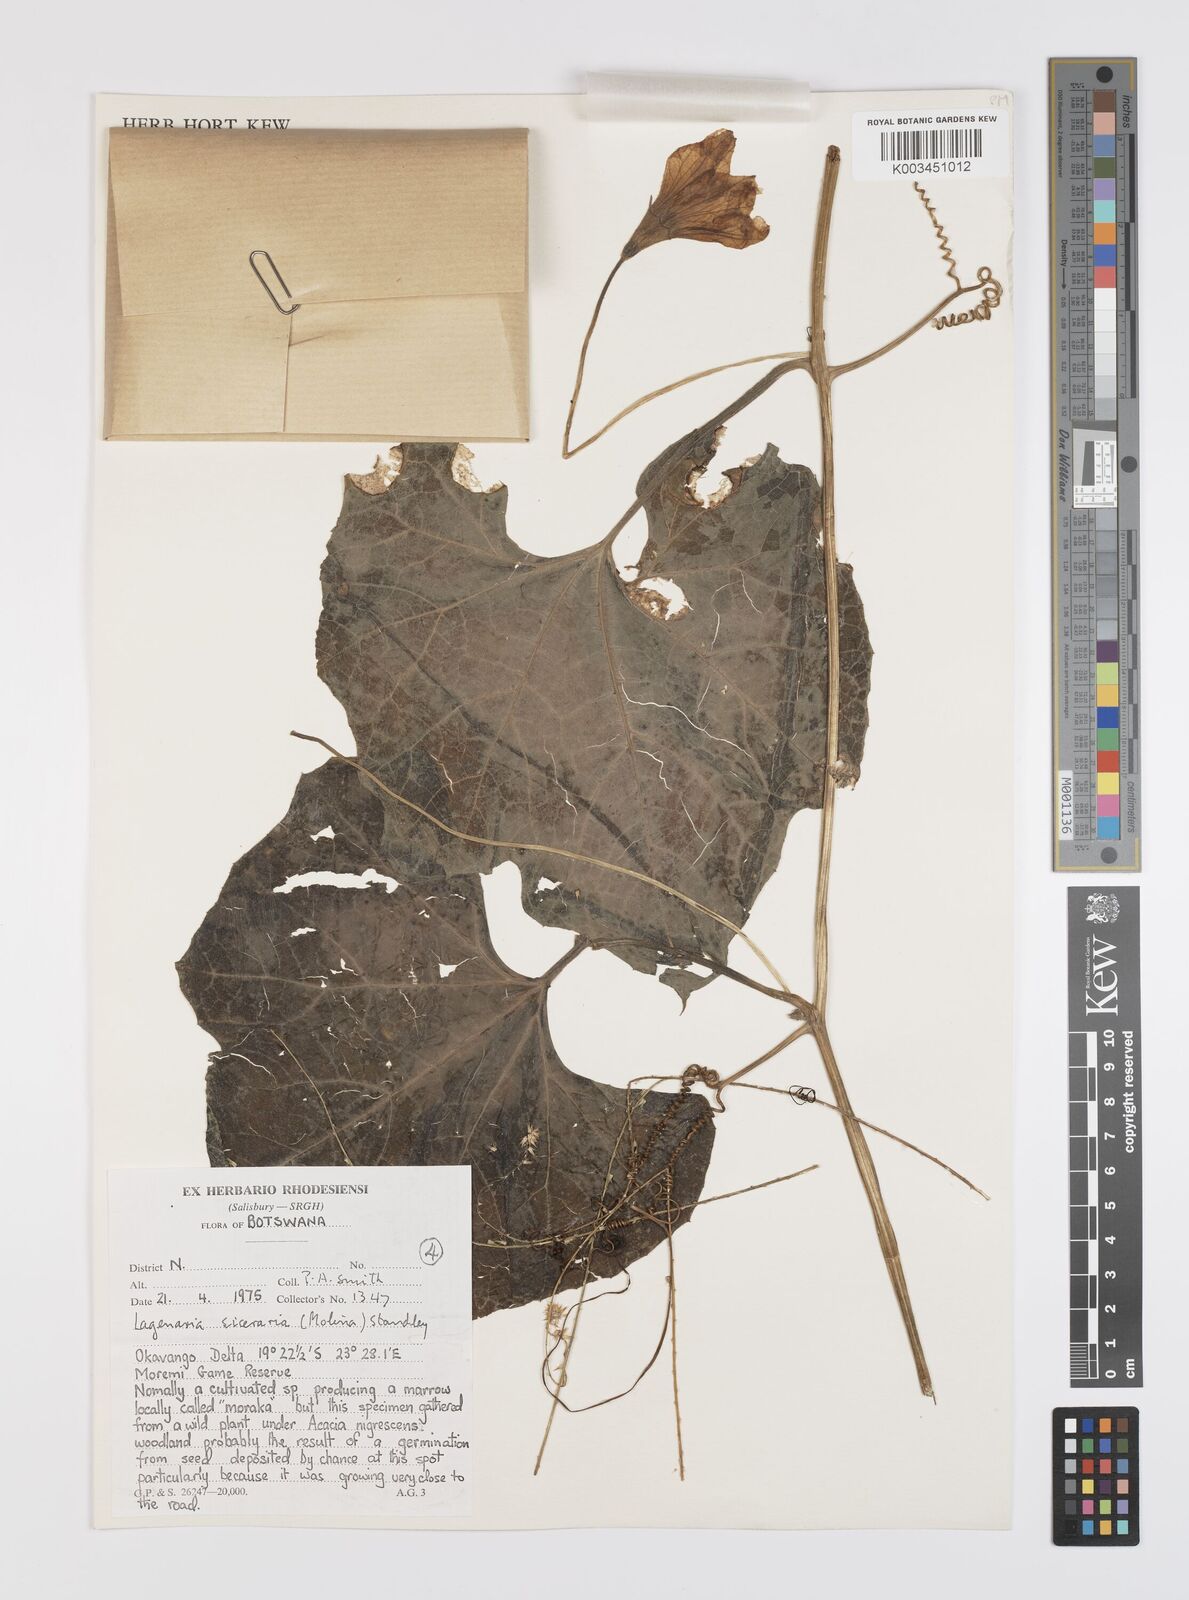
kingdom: Plantae
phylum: Tracheophyta
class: Magnoliopsida
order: Cucurbitales
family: Cucurbitaceae
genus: Lagenaria
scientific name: Lagenaria siceraria
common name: Bottle gourd
